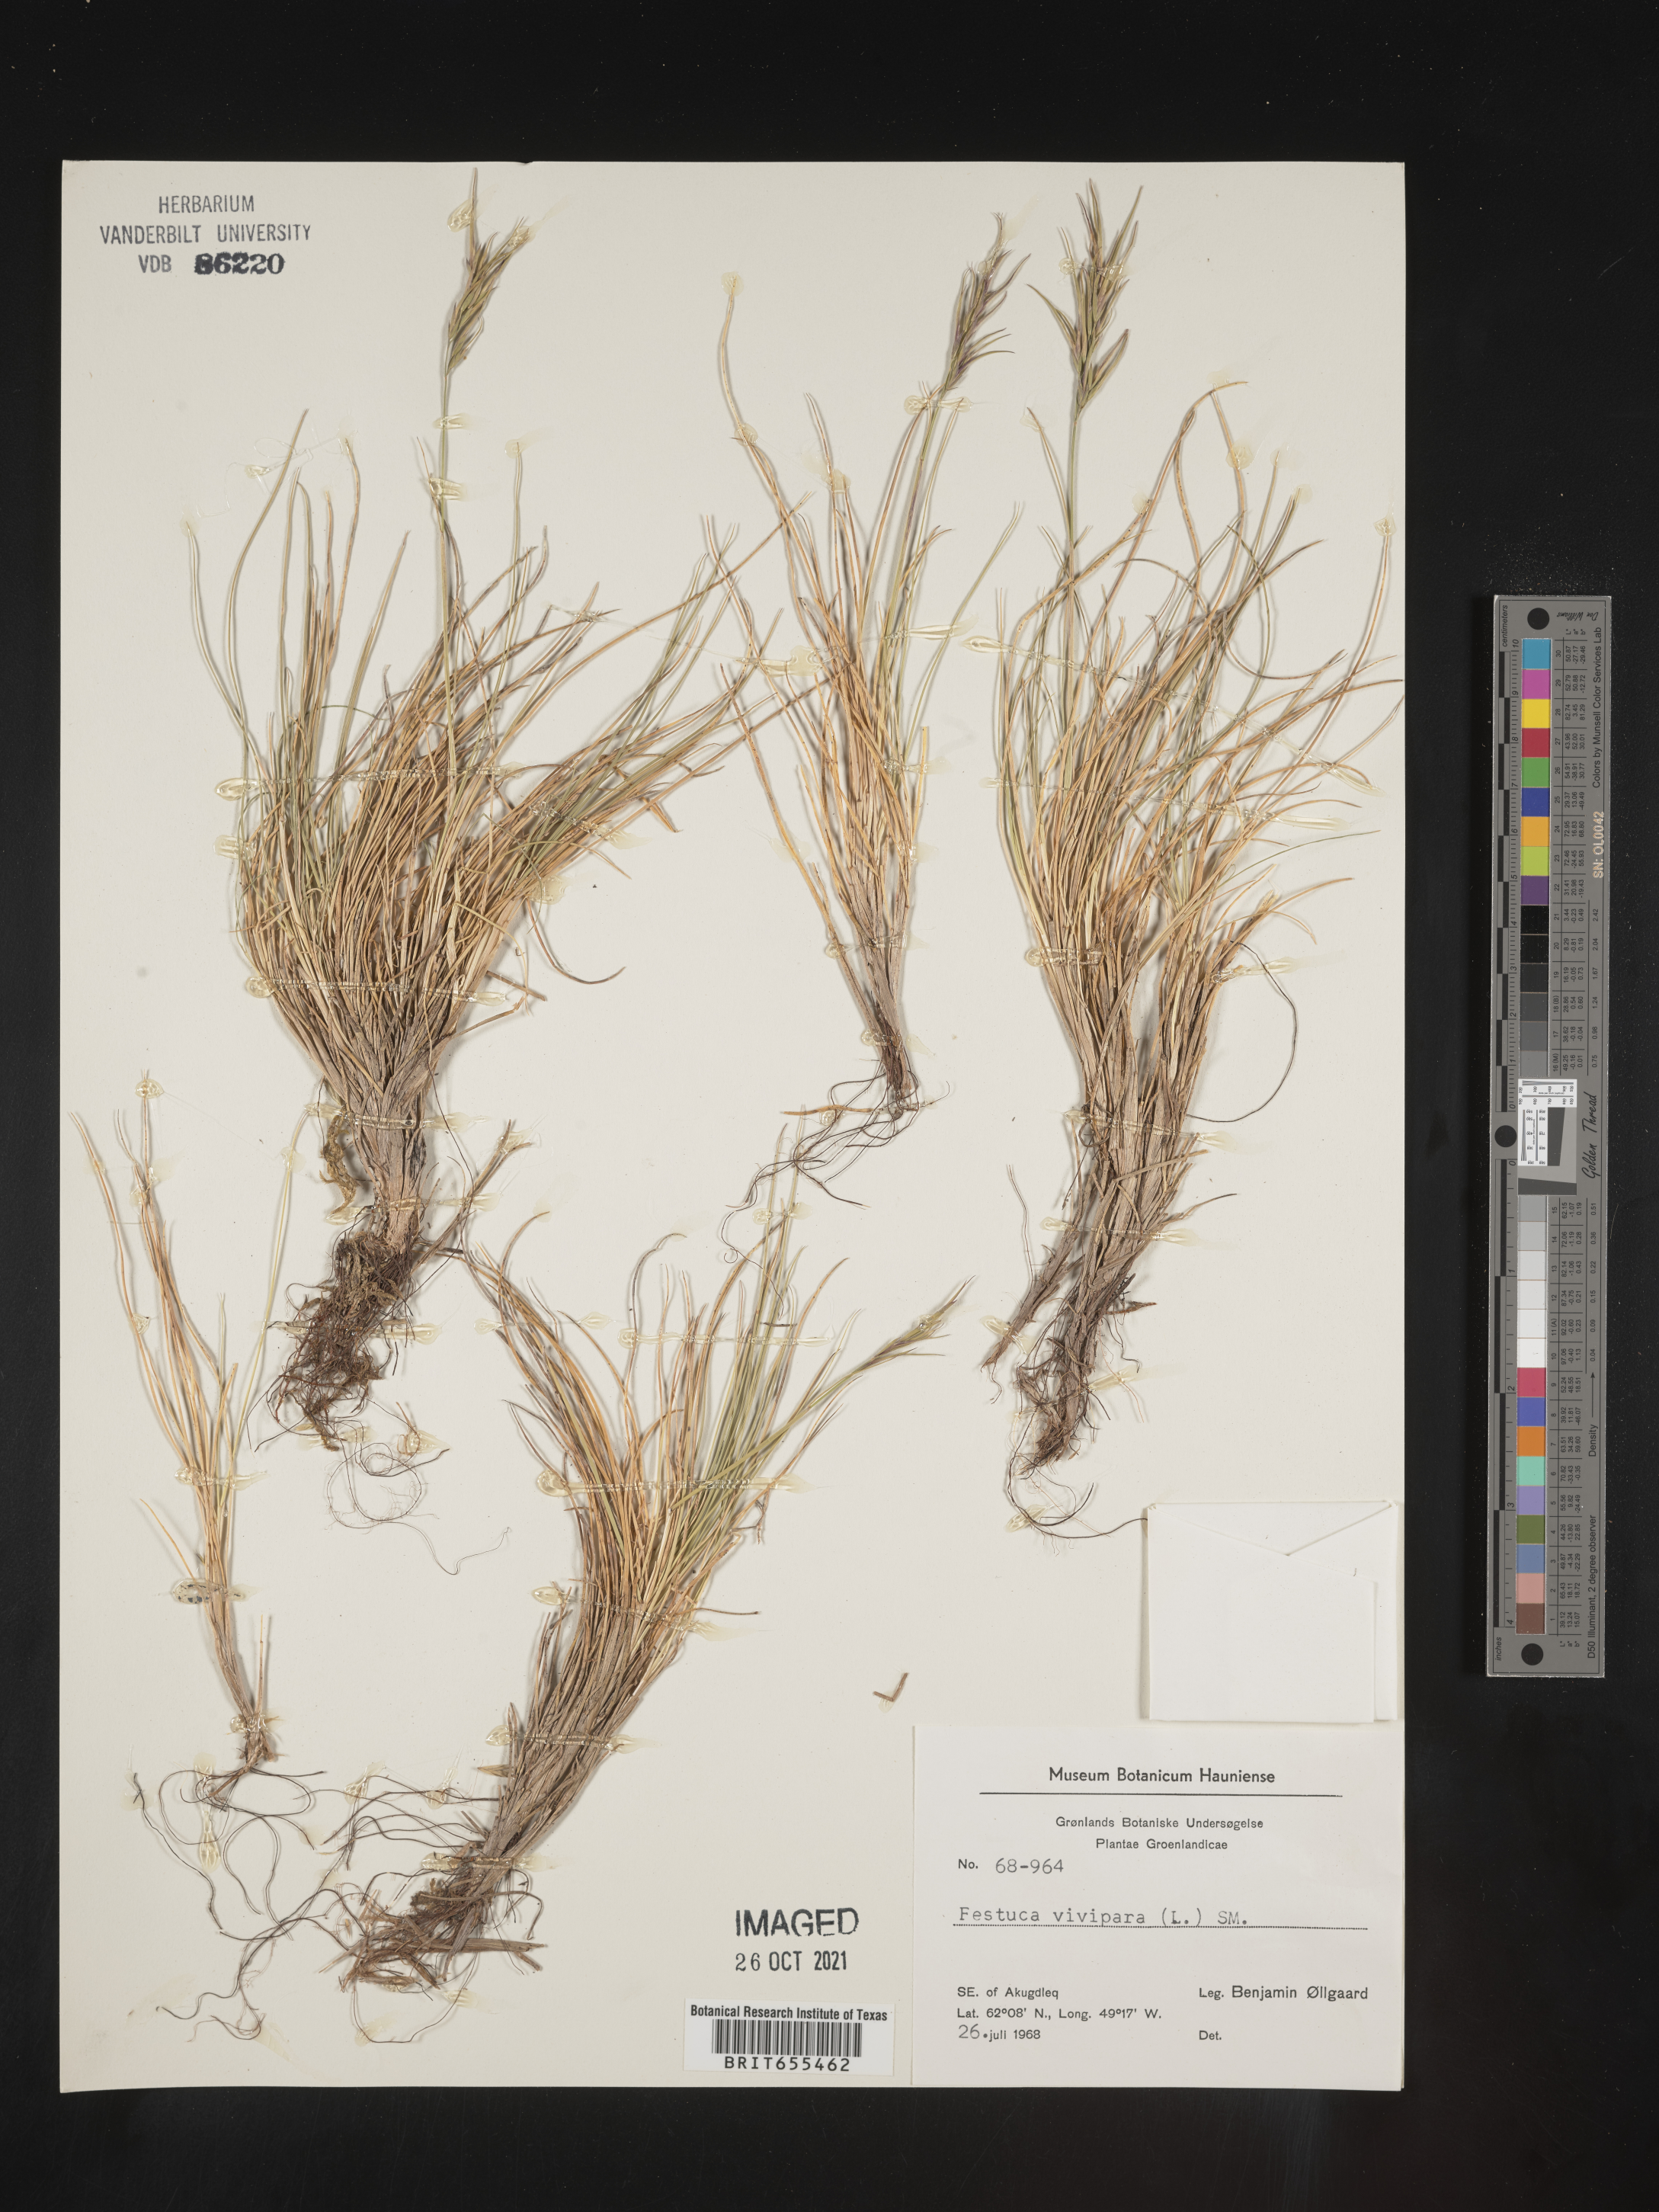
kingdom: Plantae
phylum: Tracheophyta
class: Liliopsida
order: Poales
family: Poaceae
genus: Festuca
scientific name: Festuca
